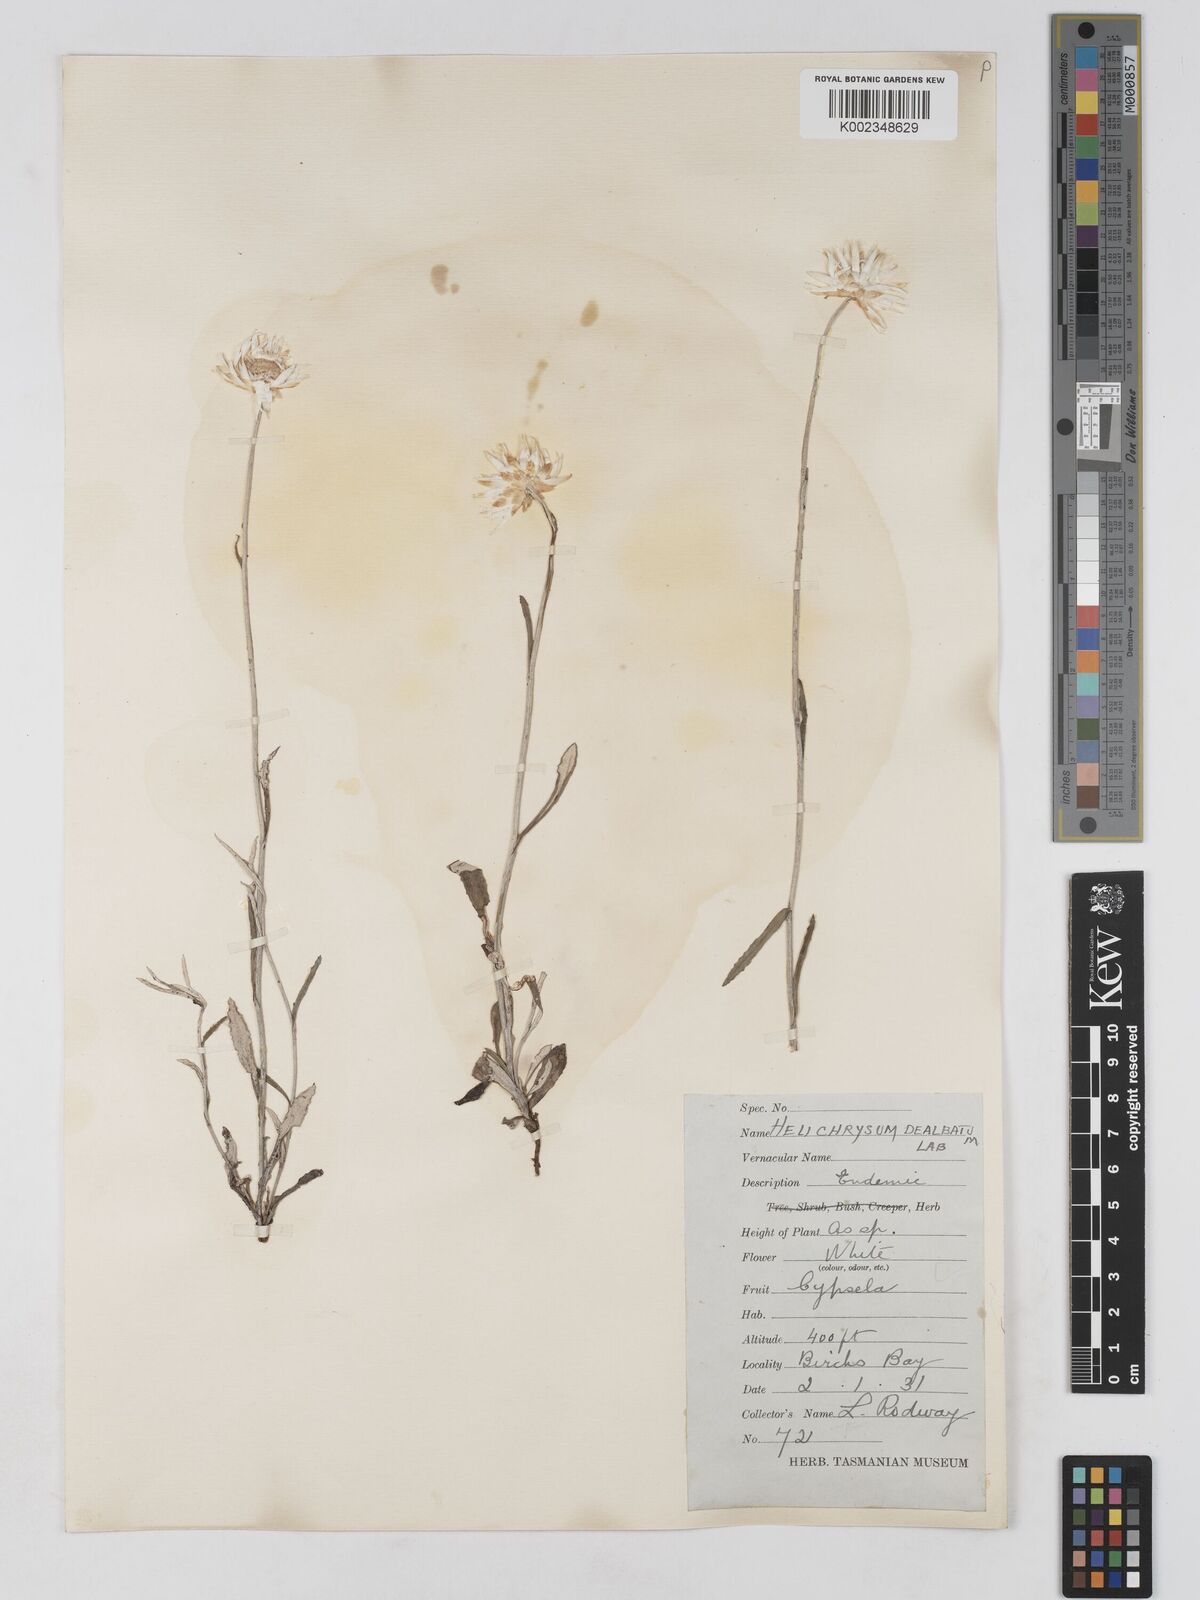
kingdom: Plantae
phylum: Tracheophyta
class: Magnoliopsida
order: Asterales
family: Asteraceae
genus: Argentipallium
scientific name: Argentipallium dealbatum
